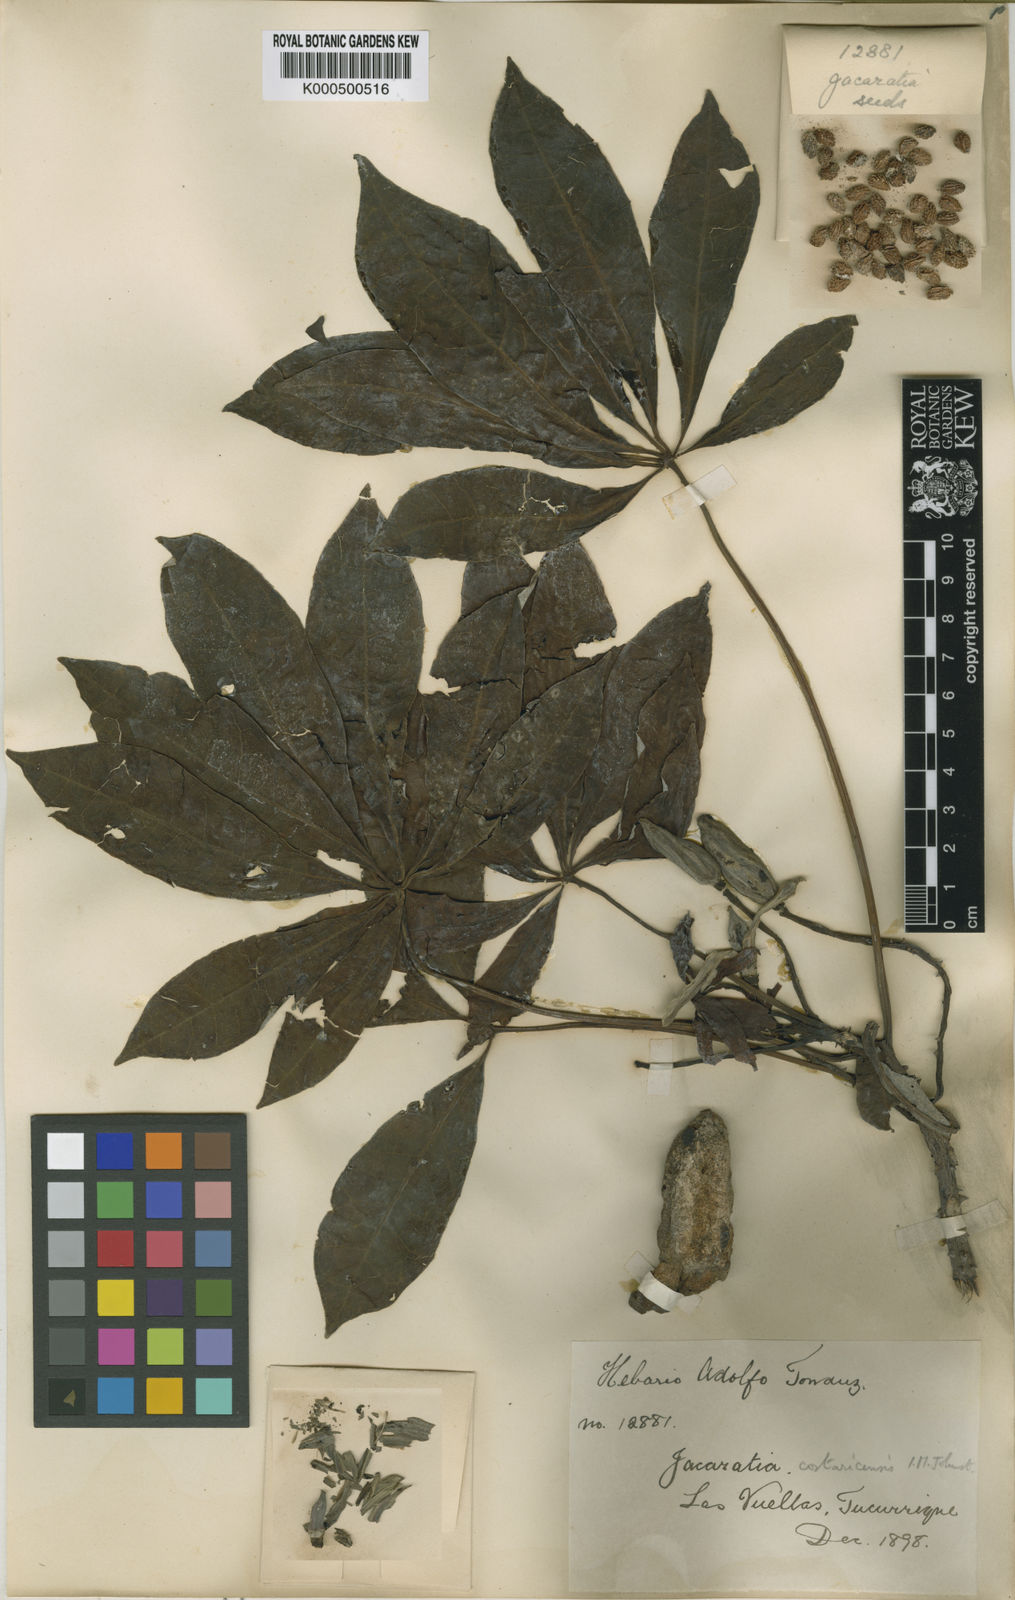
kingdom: Plantae
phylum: Tracheophyta
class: Magnoliopsida
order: Brassicales
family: Caricaceae
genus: Jacaratia
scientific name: Jacaratia spinosa
